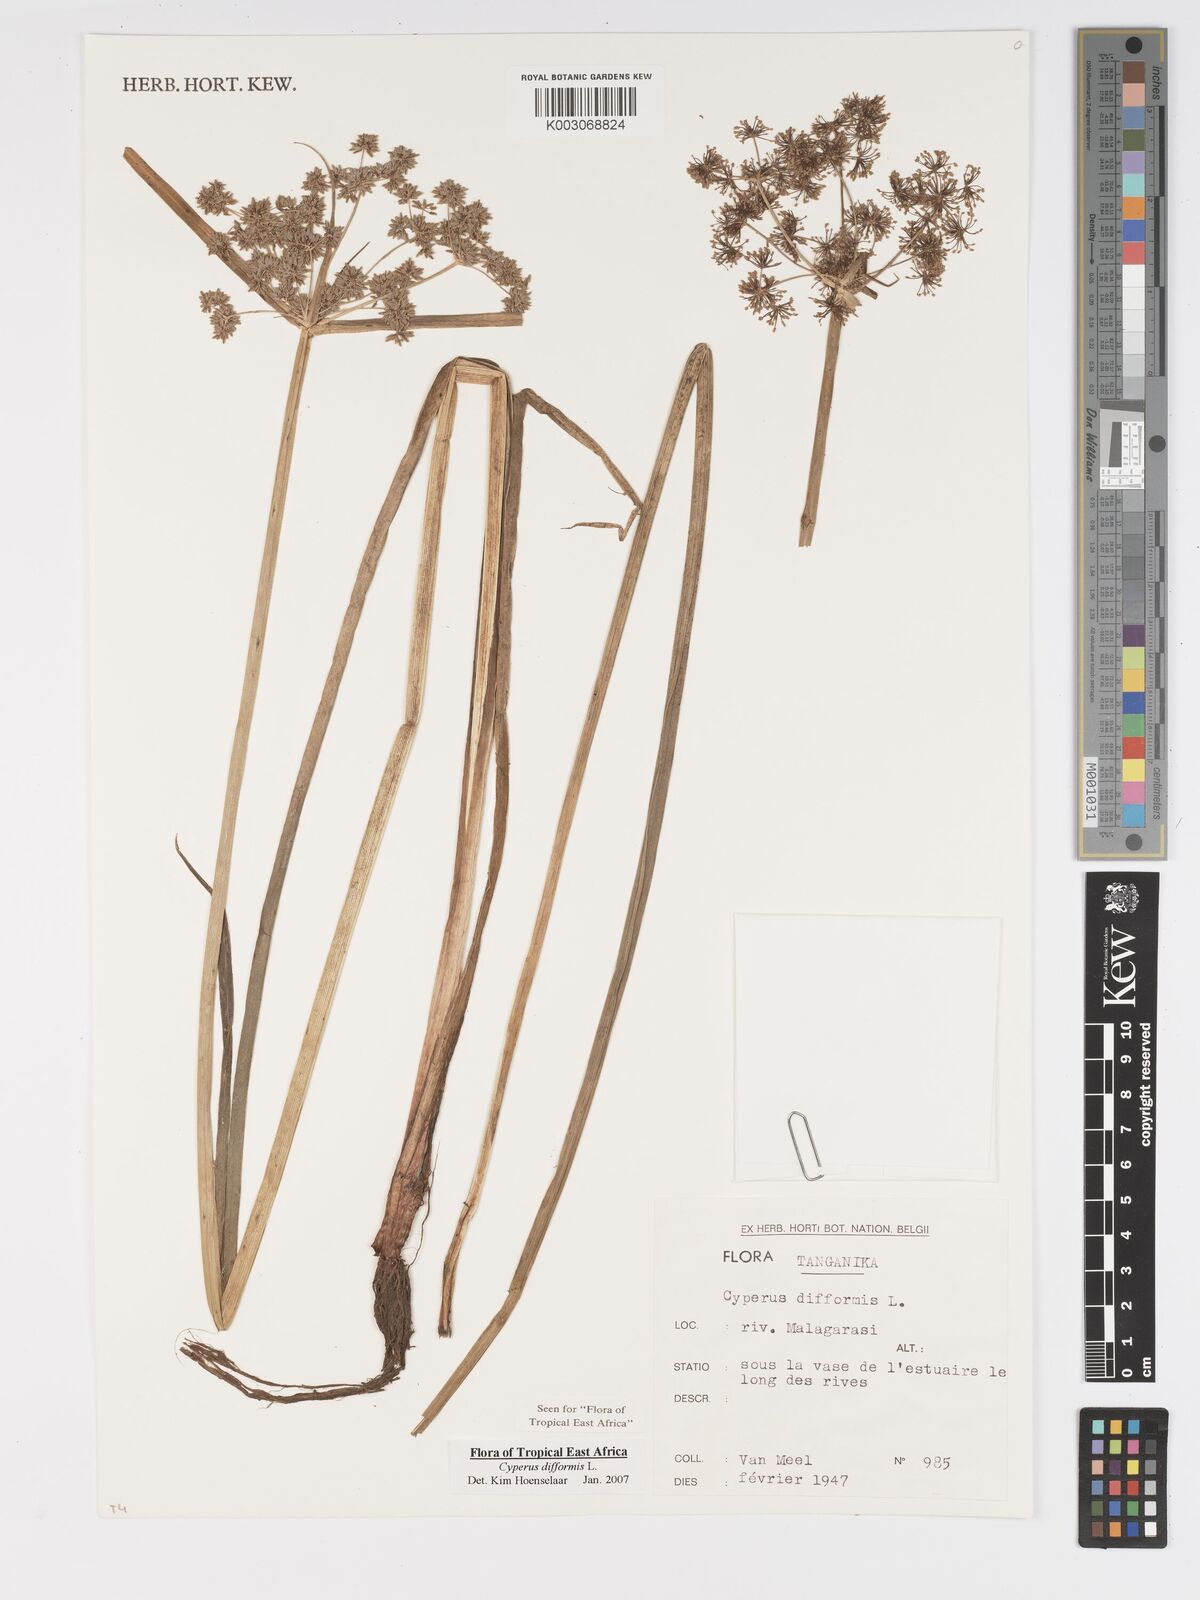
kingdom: Plantae
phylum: Tracheophyta
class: Liliopsida
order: Poales
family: Cyperaceae
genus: Cyperus
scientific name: Cyperus difformis
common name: Variable flatsedge
